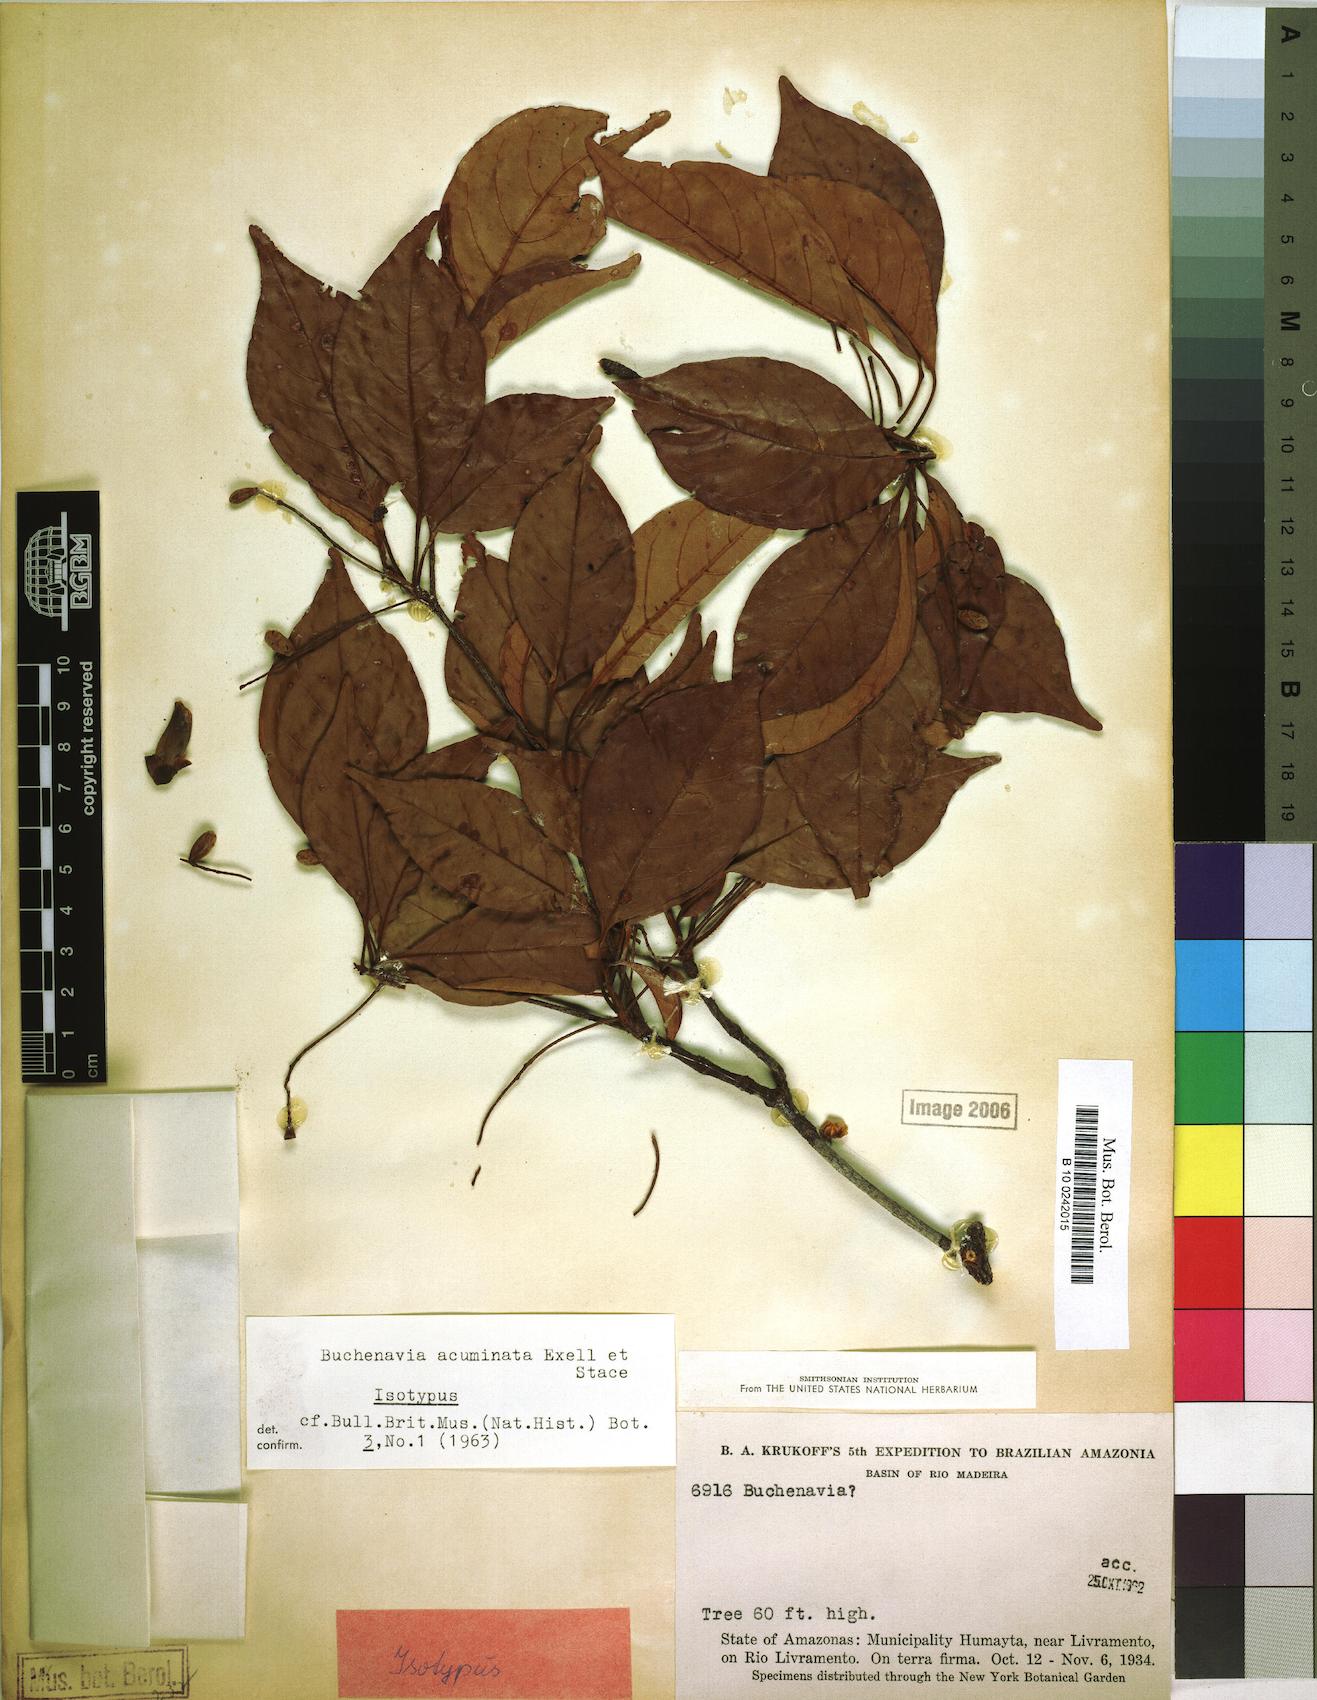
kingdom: Plantae
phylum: Tracheophyta
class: Magnoliopsida
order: Myrtales
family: Combretaceae
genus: Terminalia
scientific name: Terminalia
